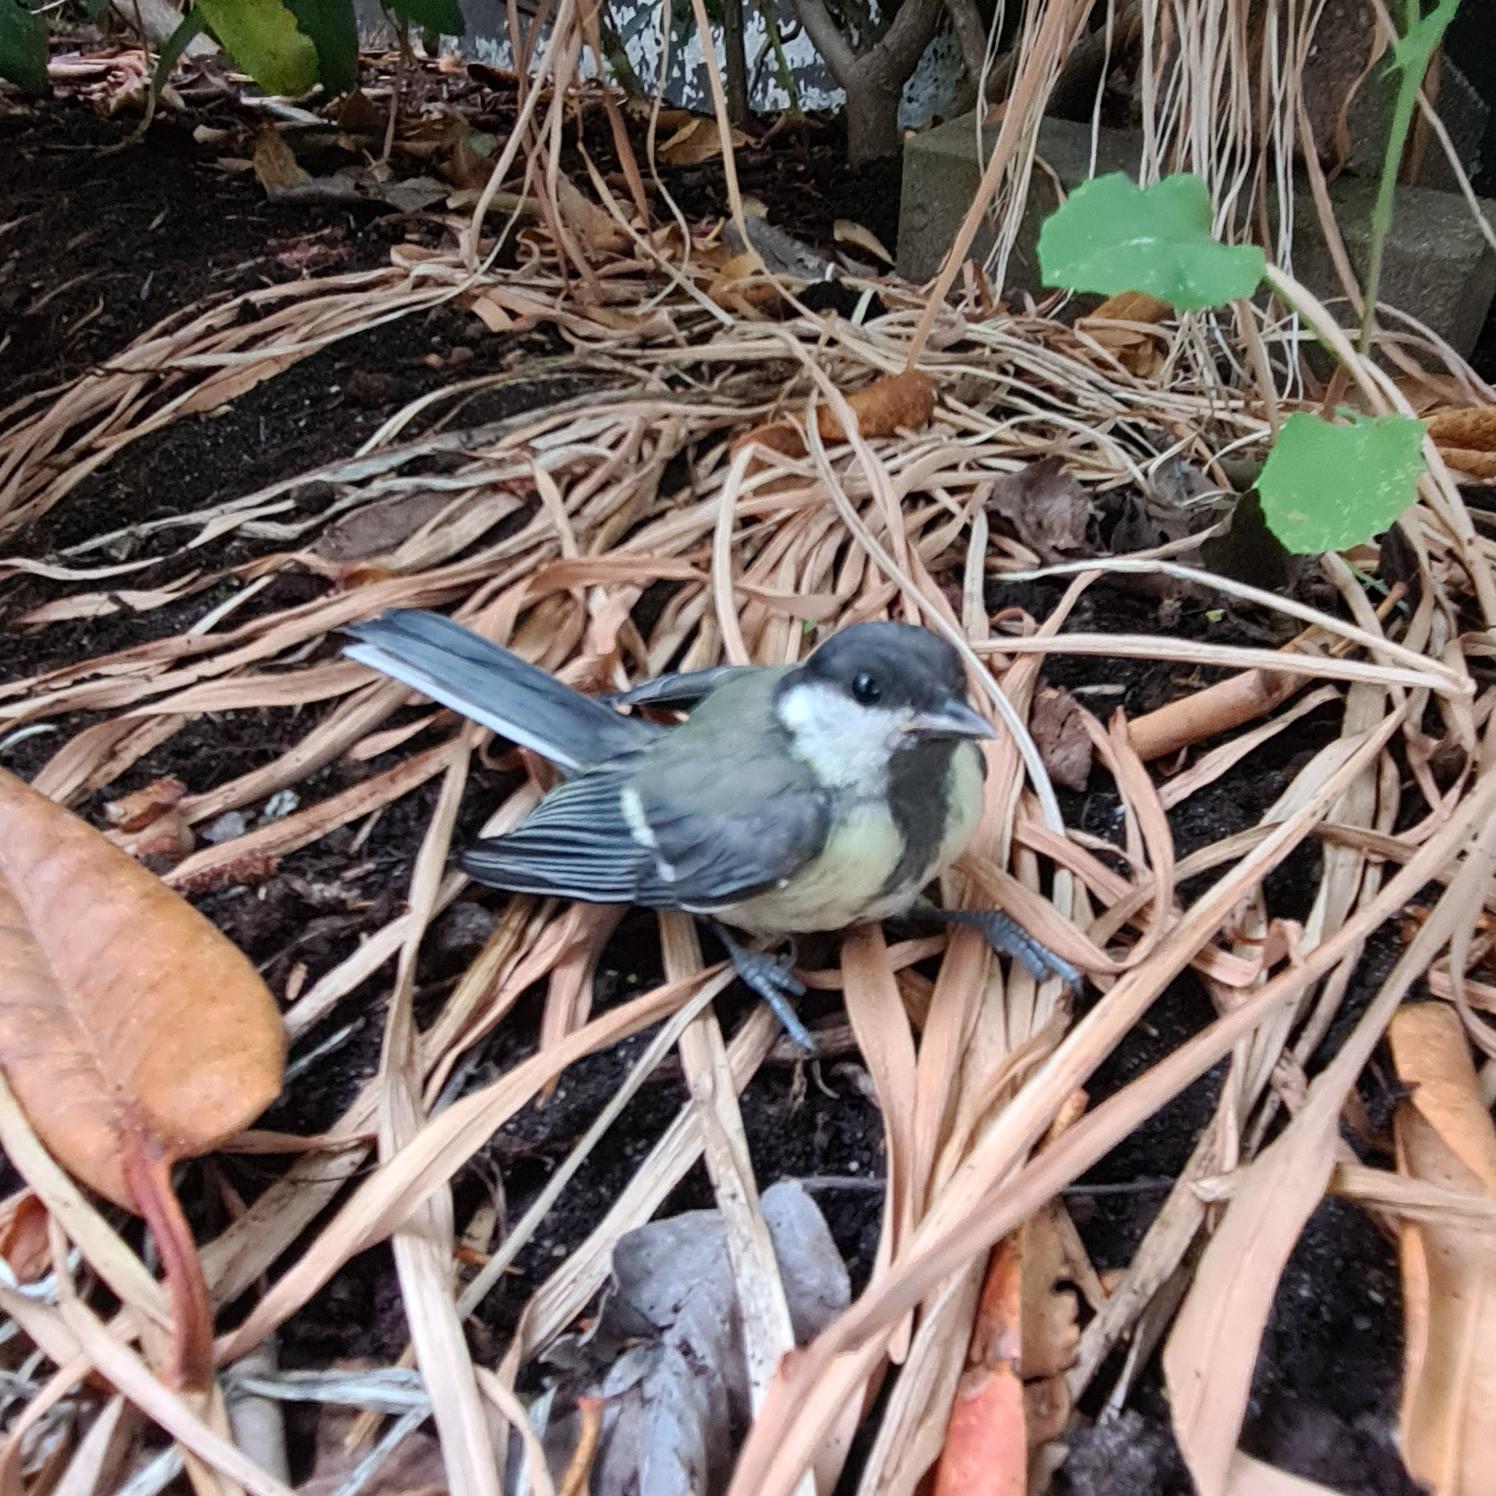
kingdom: Animalia
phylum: Chordata
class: Aves
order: Passeriformes
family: Paridae
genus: Parus
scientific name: Parus major
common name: Musvit
